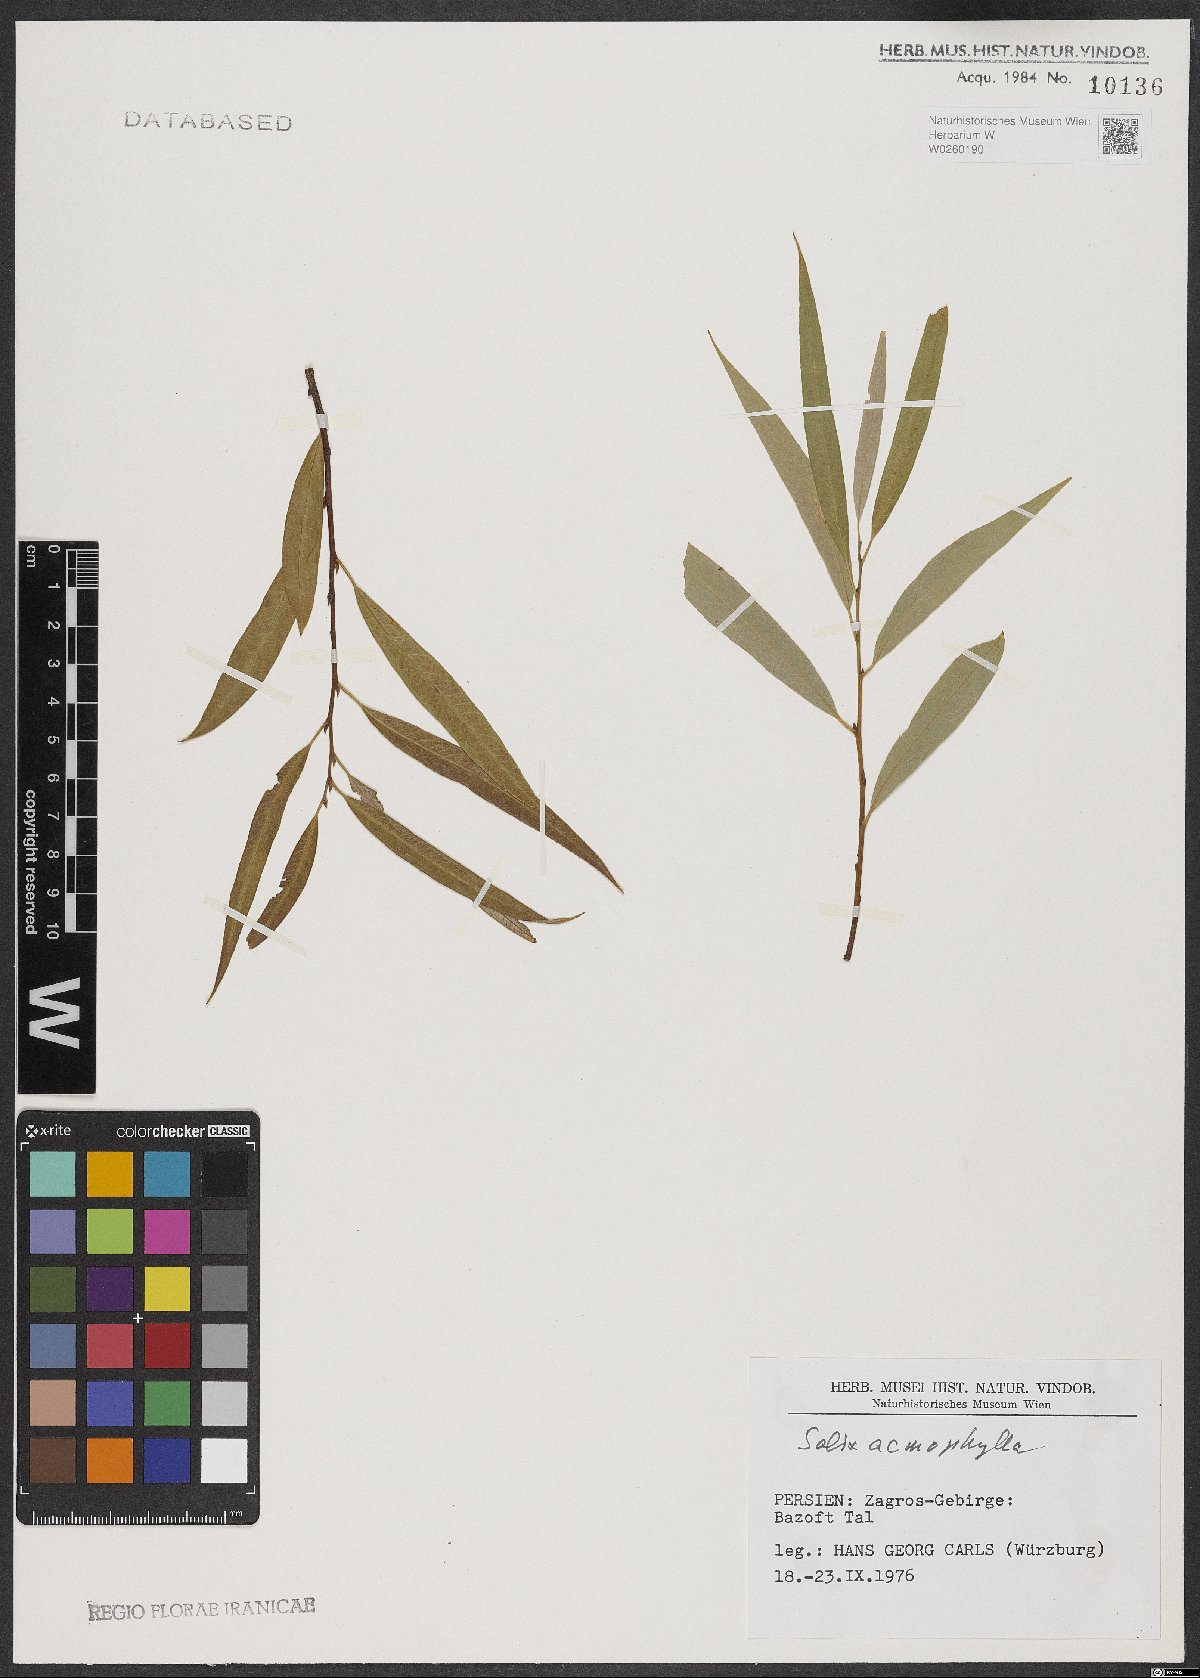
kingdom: Plantae
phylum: Tracheophyta
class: Magnoliopsida
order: Malpighiales
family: Salicaceae
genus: Salix
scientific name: Salix acmophylla
